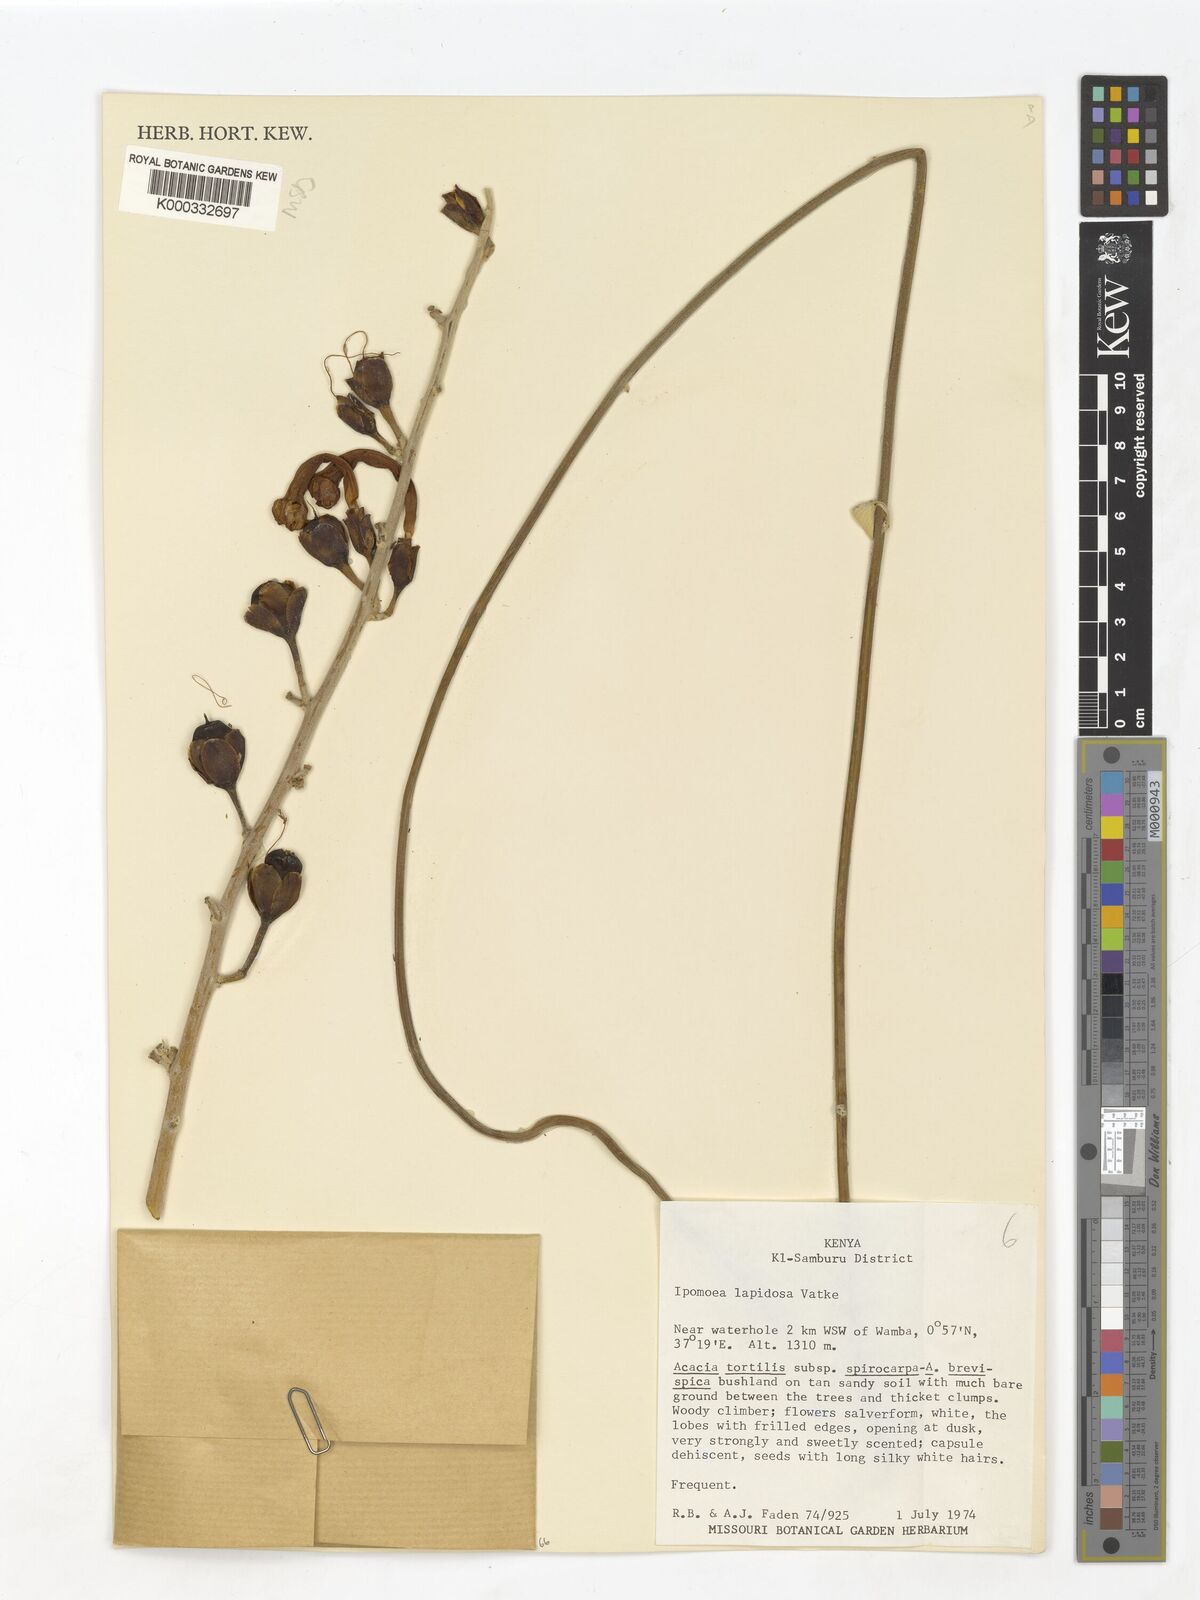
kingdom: Plantae
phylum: Tracheophyta
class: Magnoliopsida
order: Solanales
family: Convolvulaceae
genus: Ipomoea
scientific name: Ipomoea lapidosa
